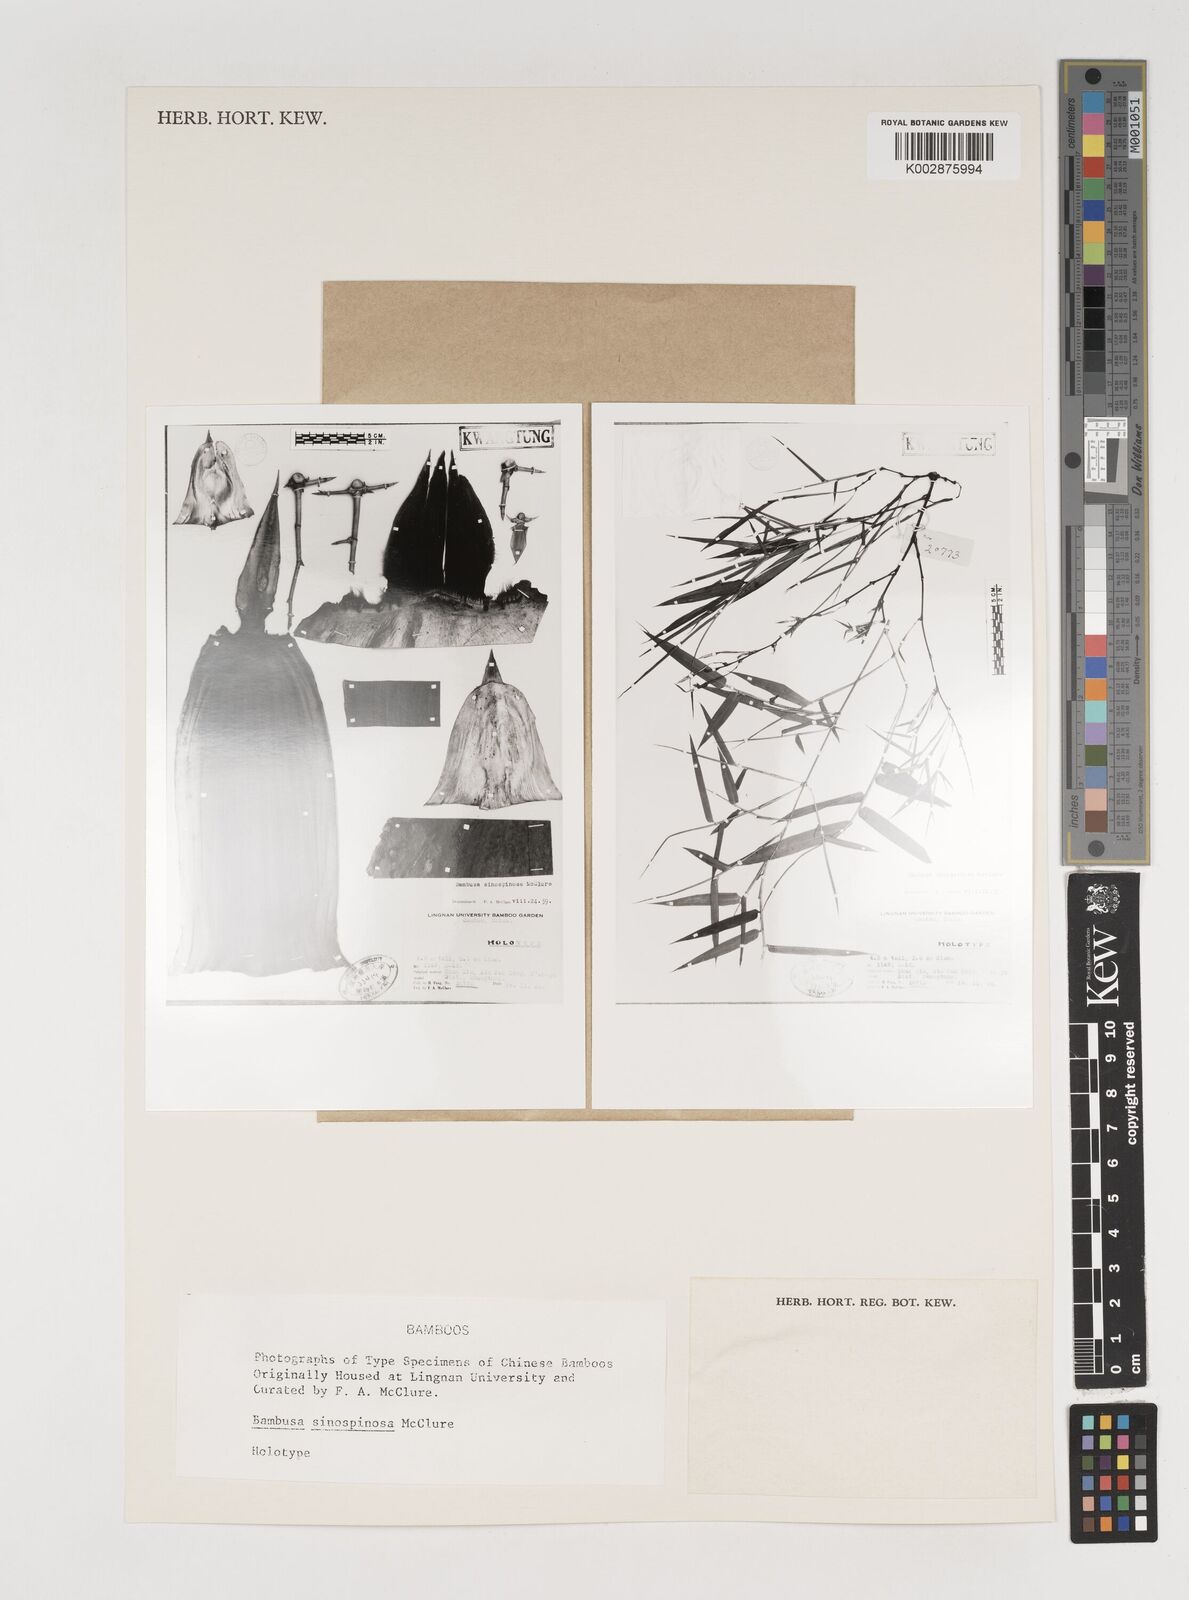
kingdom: Plantae
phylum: Tracheophyta
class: Liliopsida
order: Poales
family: Poaceae
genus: Bambusa
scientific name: Bambusa sinospinosa
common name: Spiny bamboo
